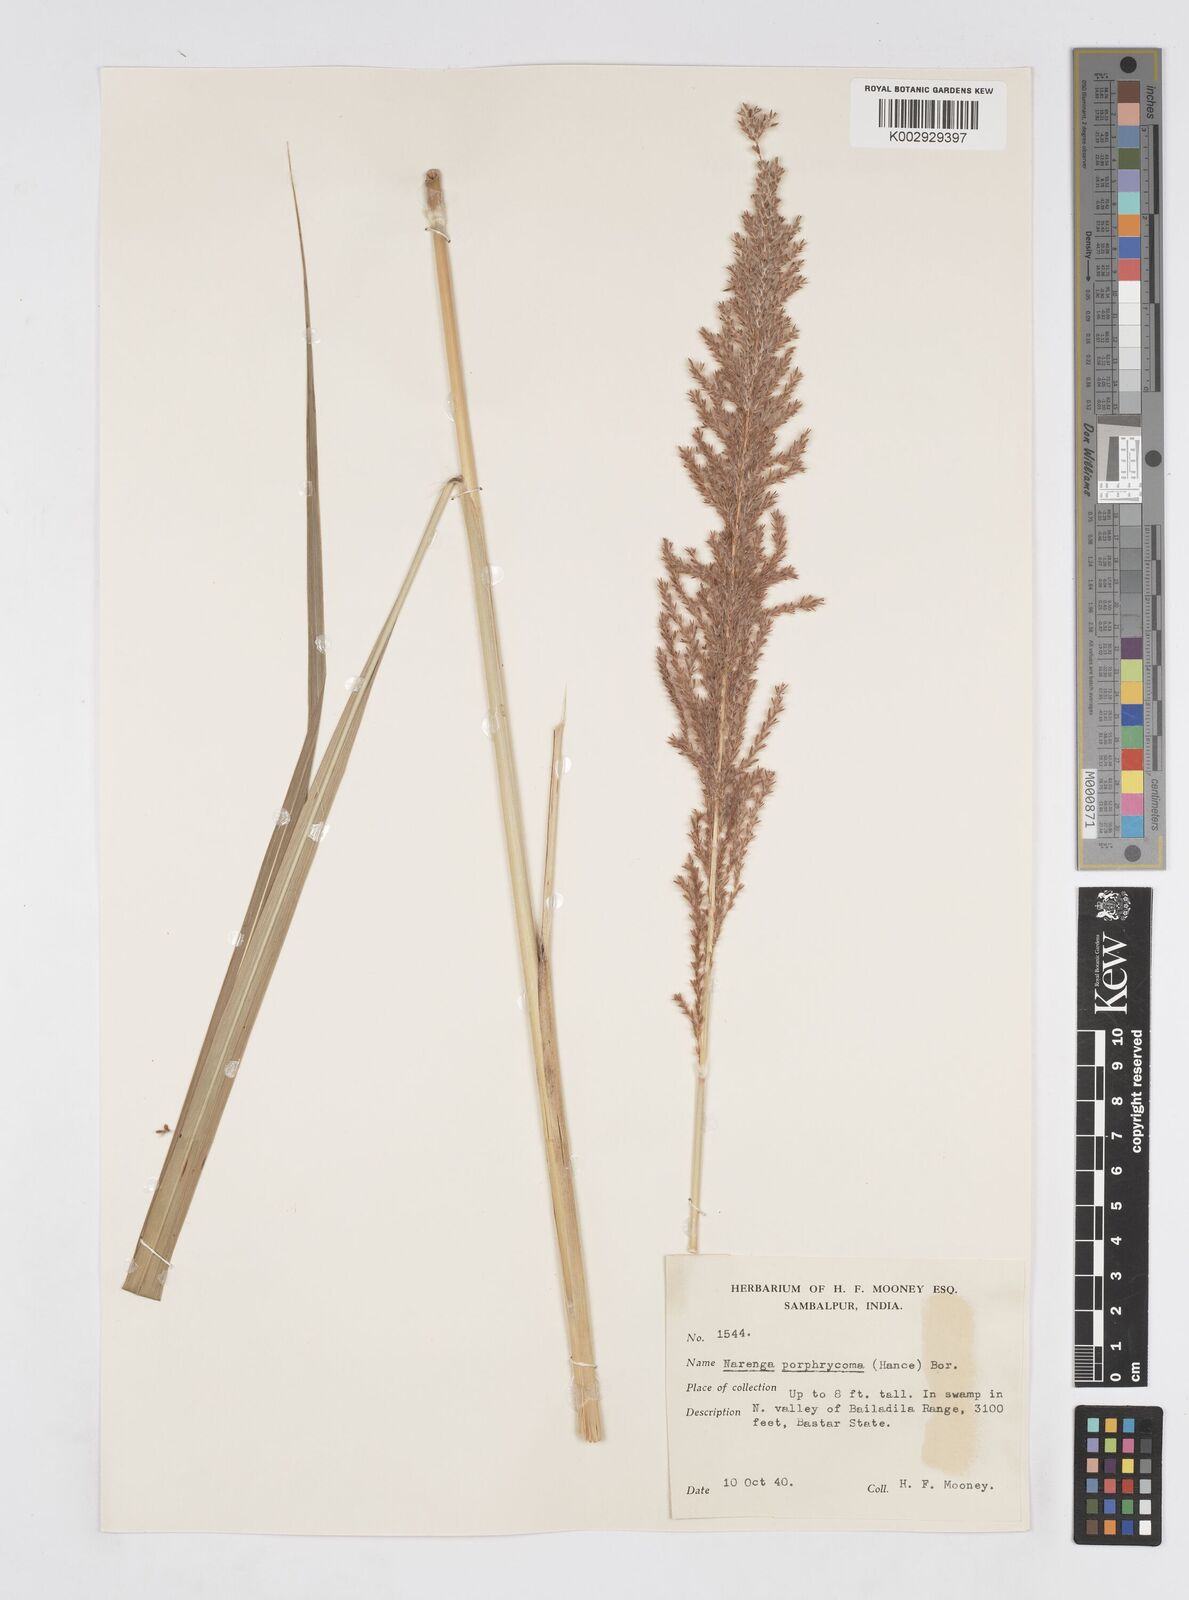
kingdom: Plantae
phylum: Tracheophyta
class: Liliopsida
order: Poales
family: Poaceae
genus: Narenga
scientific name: Narenga porphyrocoma
